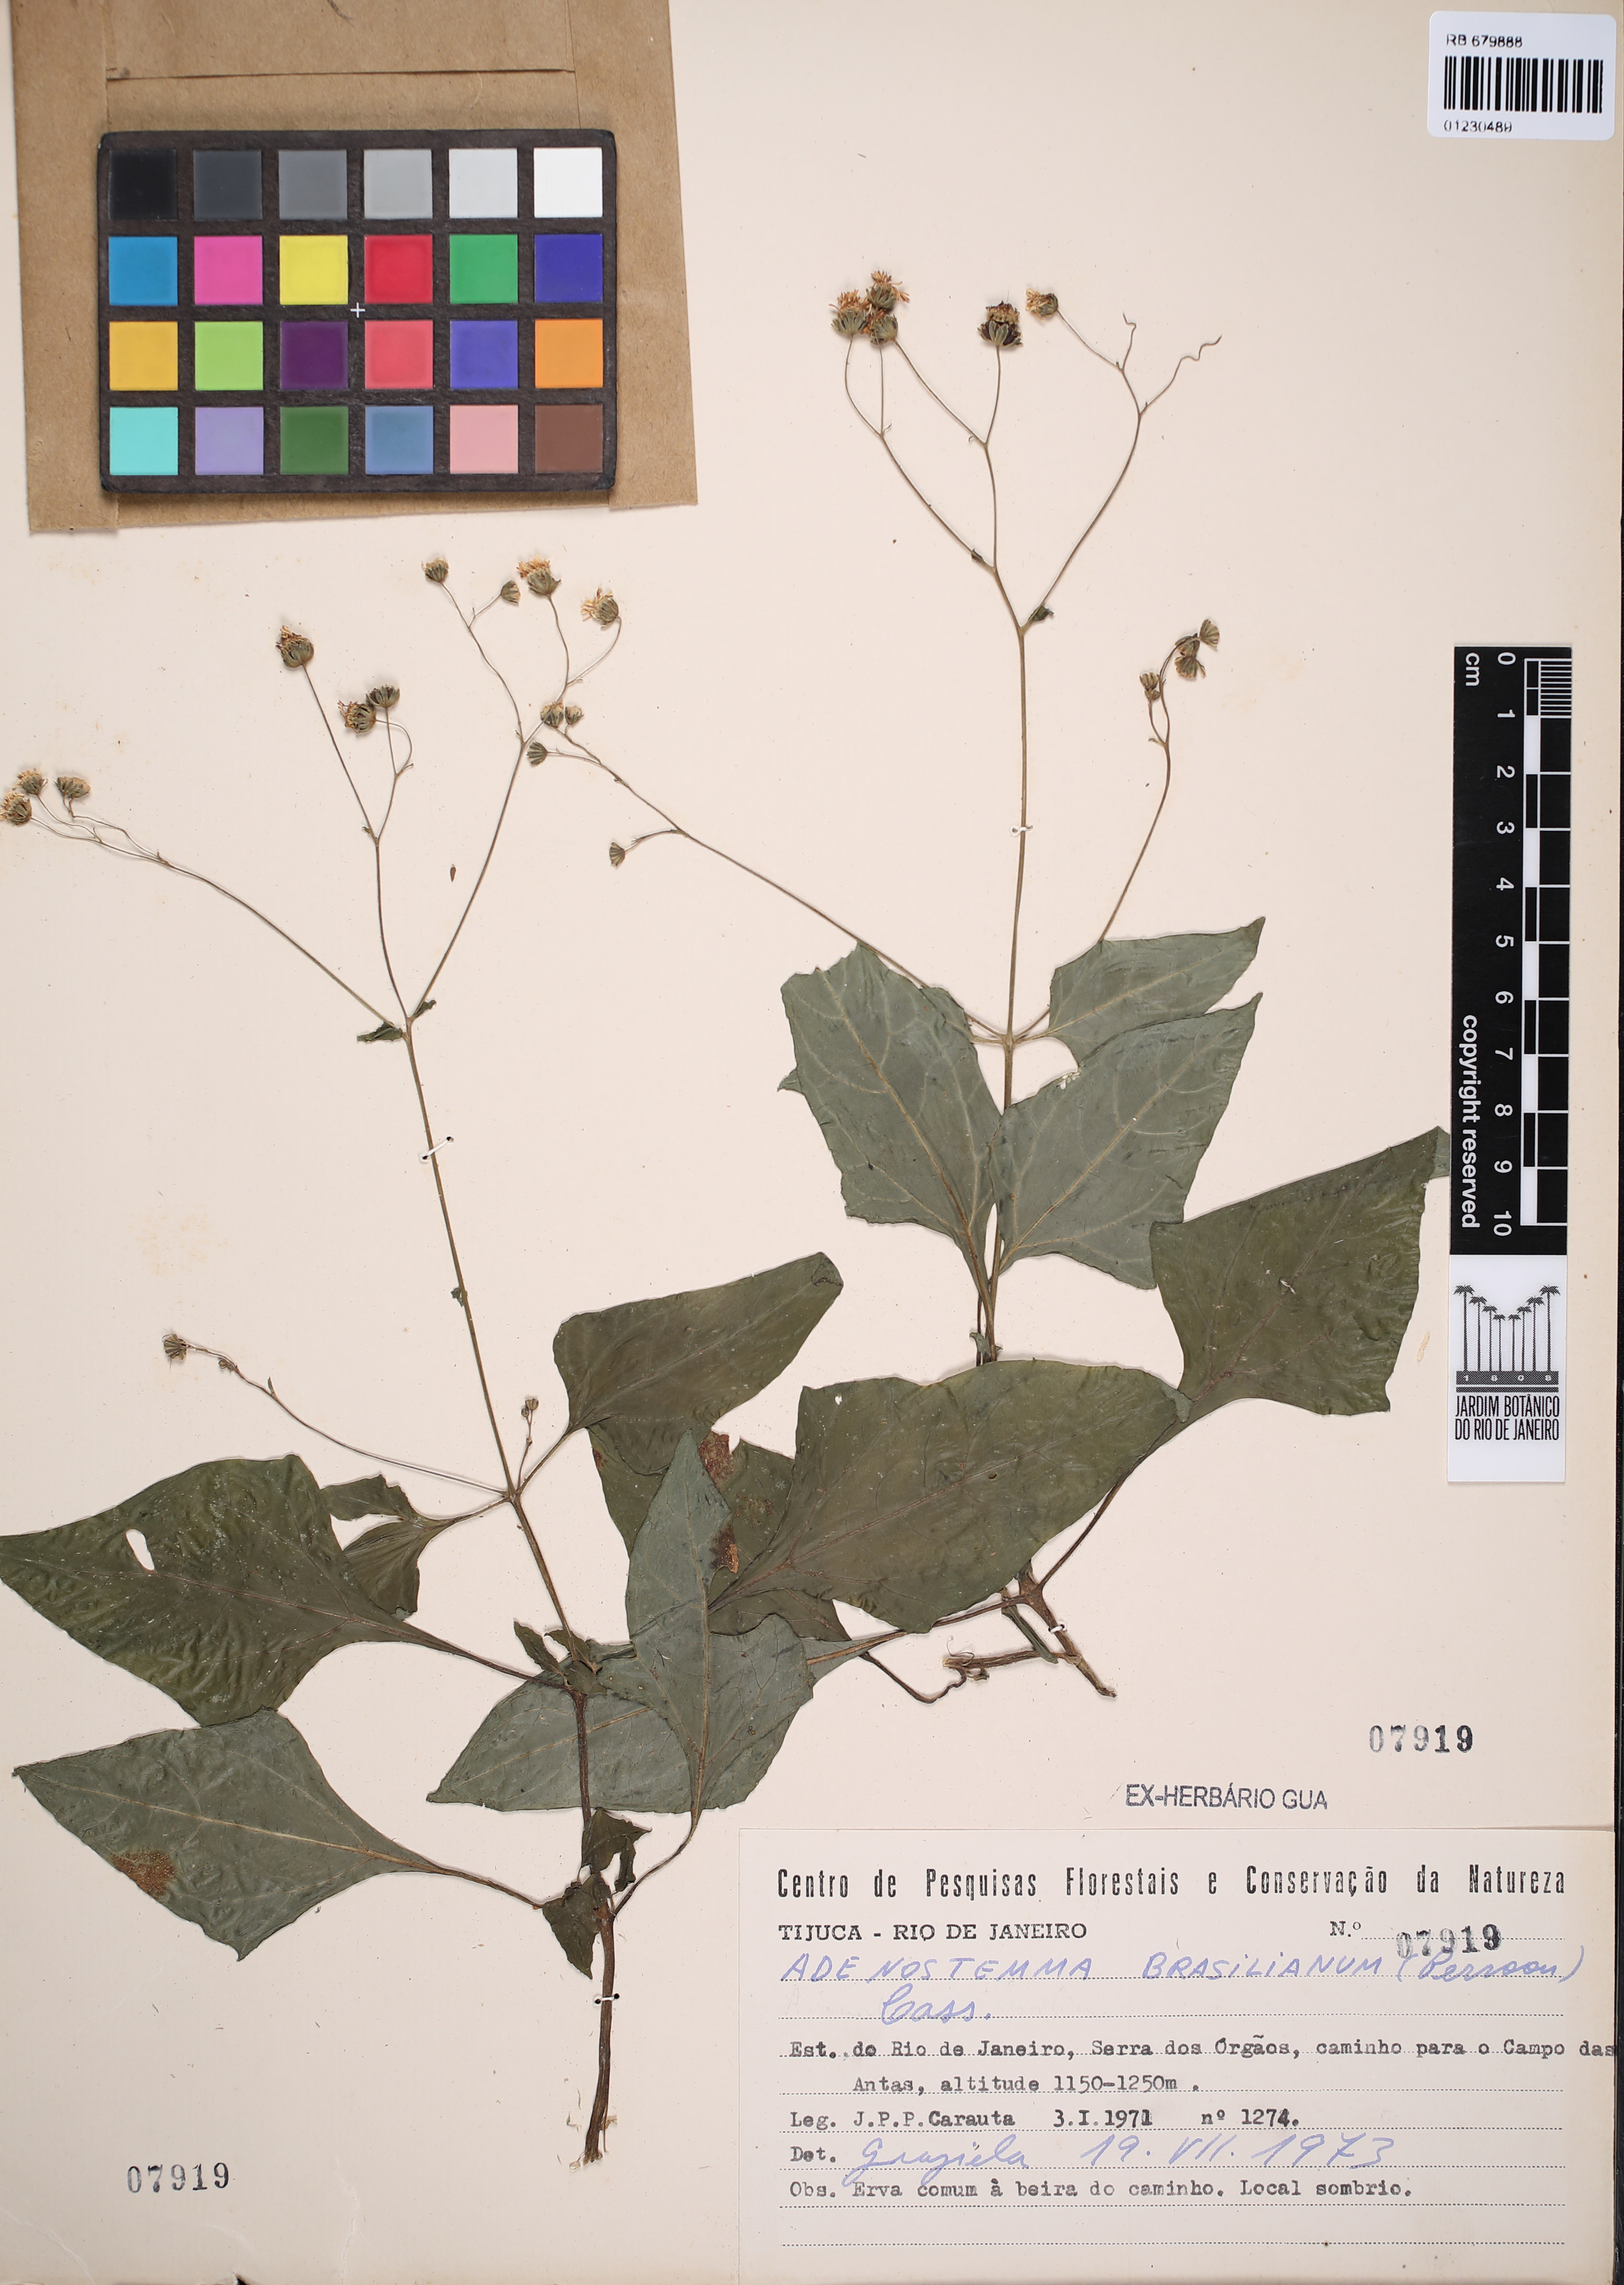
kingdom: Plantae
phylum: Tracheophyta
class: Magnoliopsida
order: Asterales
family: Asteraceae
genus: Adenostemma
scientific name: Adenostemma brasilianum
